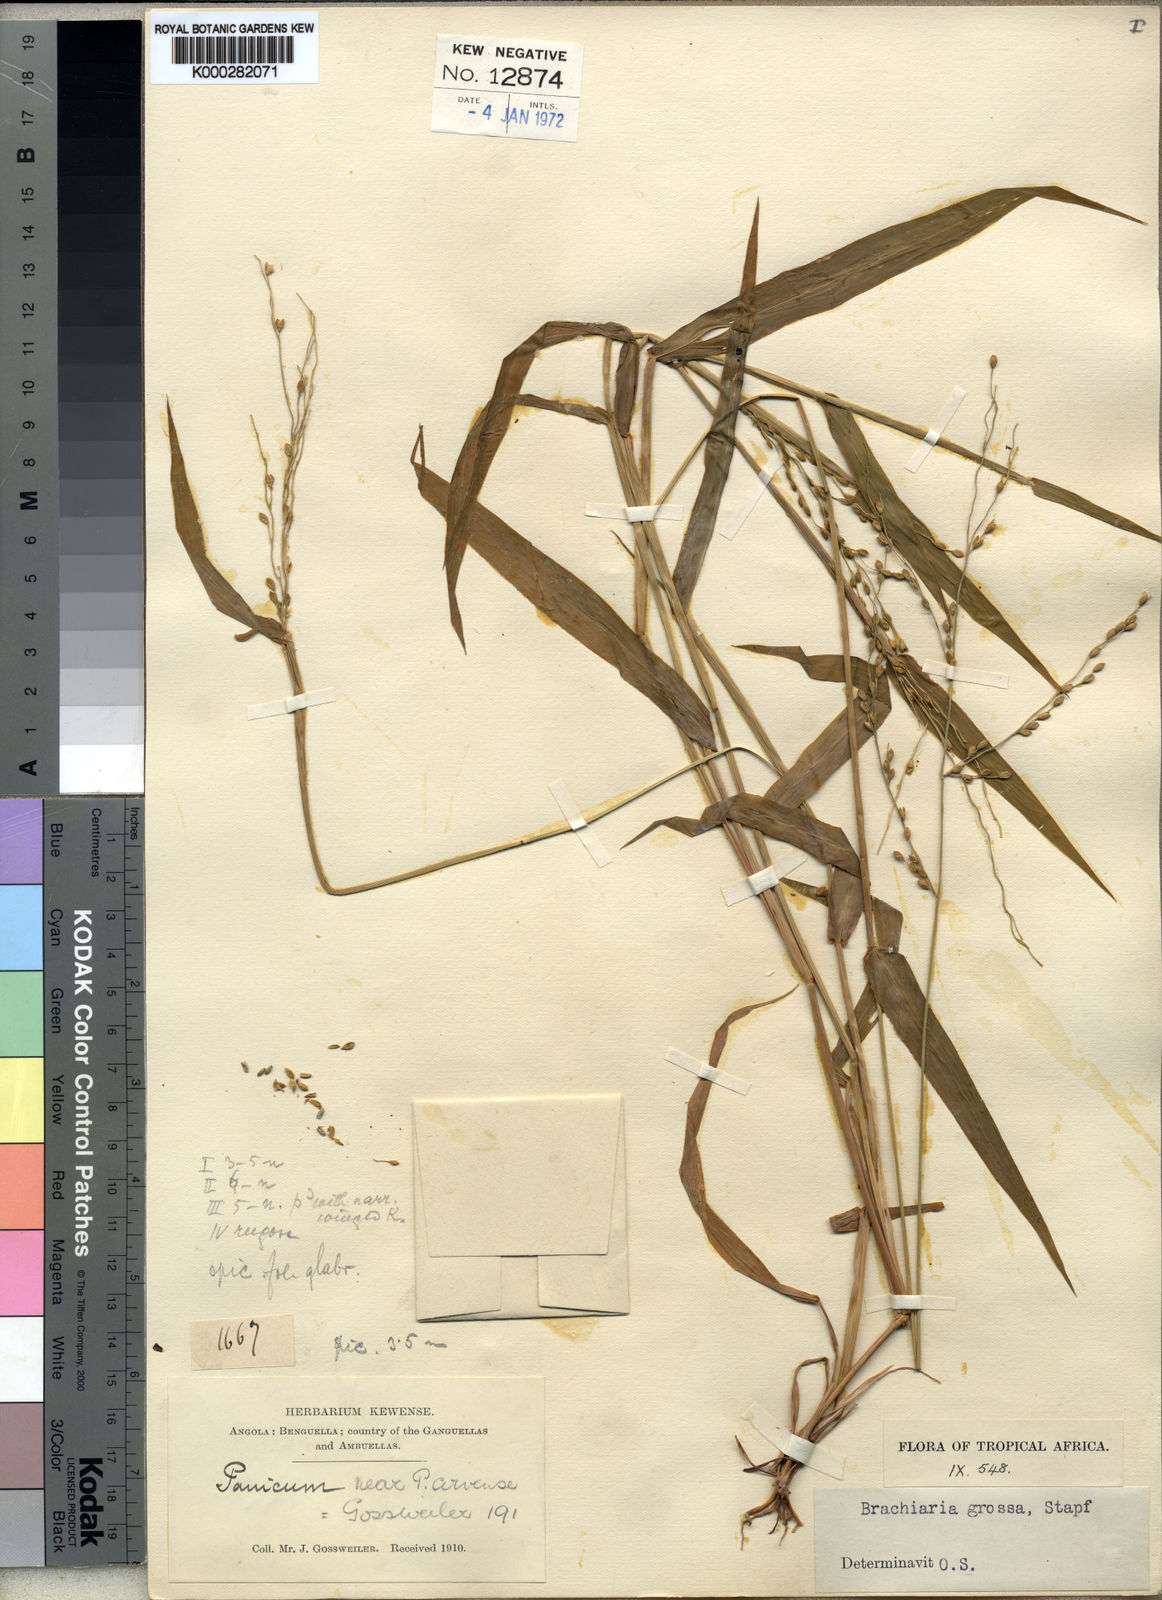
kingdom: Plantae
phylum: Tracheophyta
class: Liliopsida
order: Poales
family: Poaceae
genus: Urochloa
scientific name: Urochloa Brachiaria grossa
